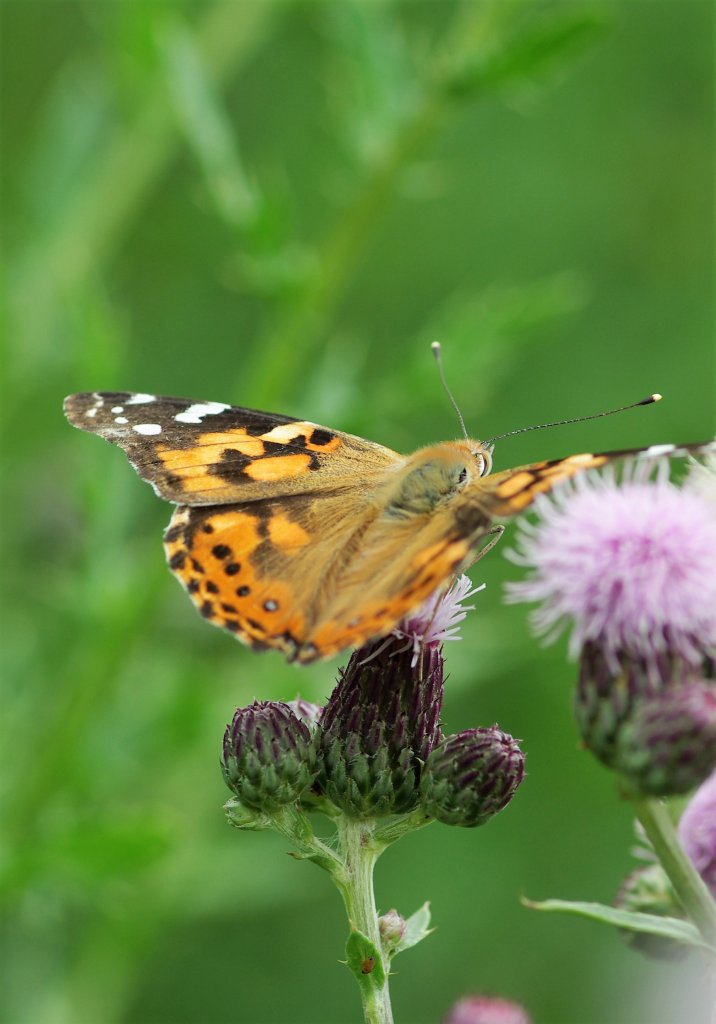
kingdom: Animalia
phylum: Arthropoda
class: Insecta
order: Lepidoptera
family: Nymphalidae
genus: Vanessa
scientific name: Vanessa cardui
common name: Painted Lady
